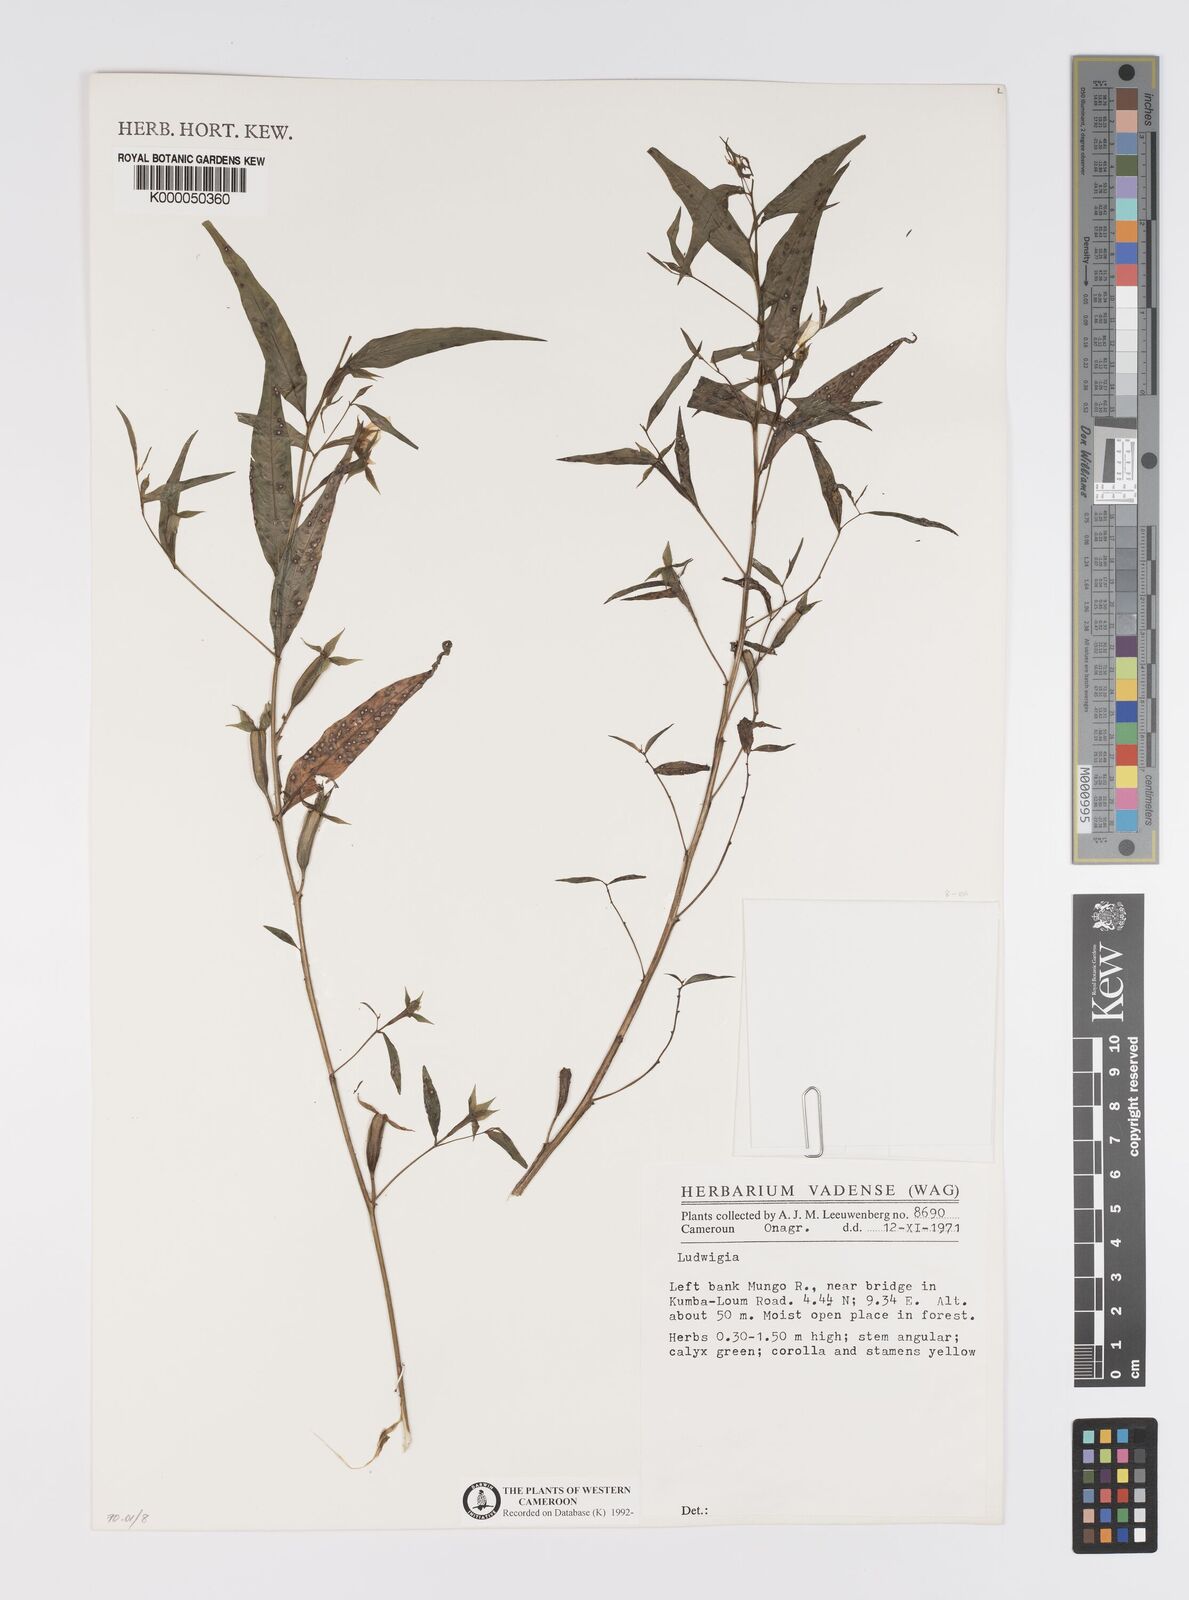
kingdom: Plantae
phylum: Tracheophyta
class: Magnoliopsida
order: Myrtales
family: Onagraceae
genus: Ludwigia
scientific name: Ludwigia
